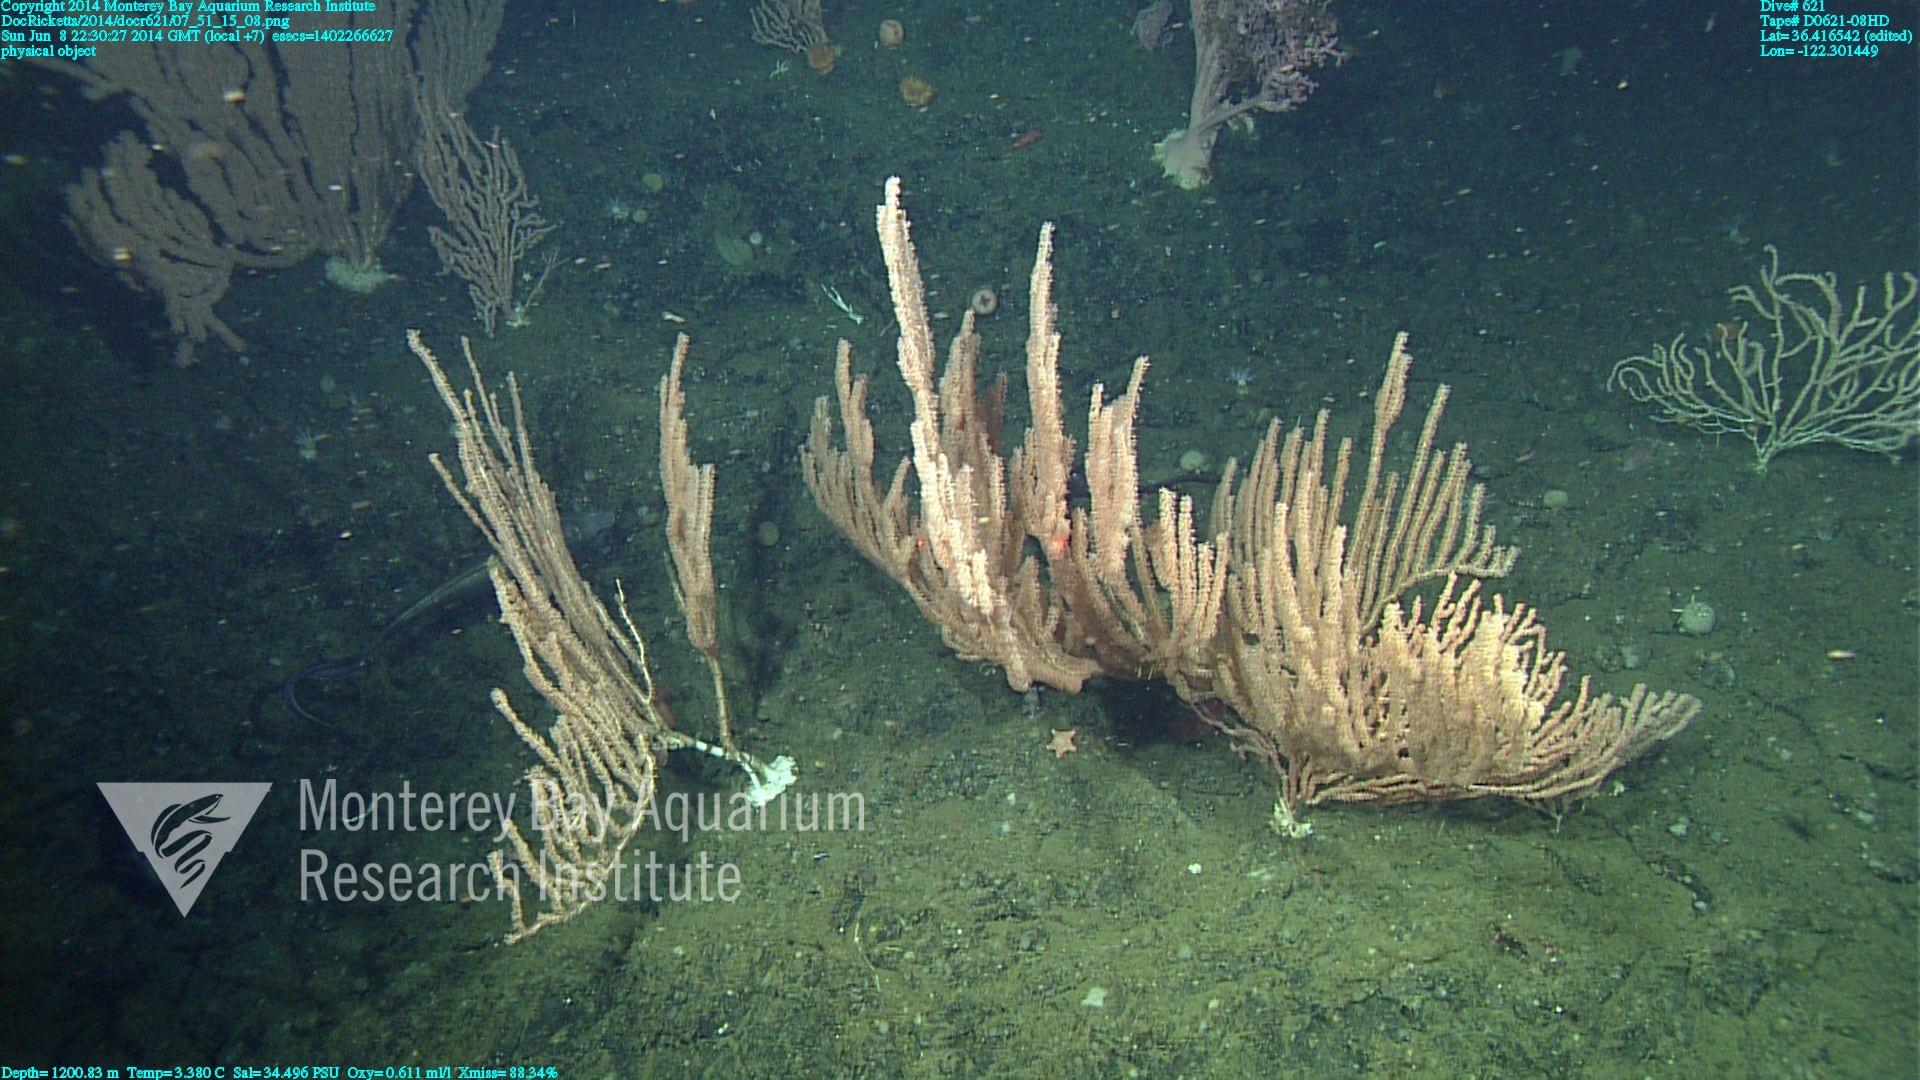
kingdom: Animalia
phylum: Cnidaria
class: Anthozoa
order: Scleralcyonacea
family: Keratoisididae
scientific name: Keratoisididae
